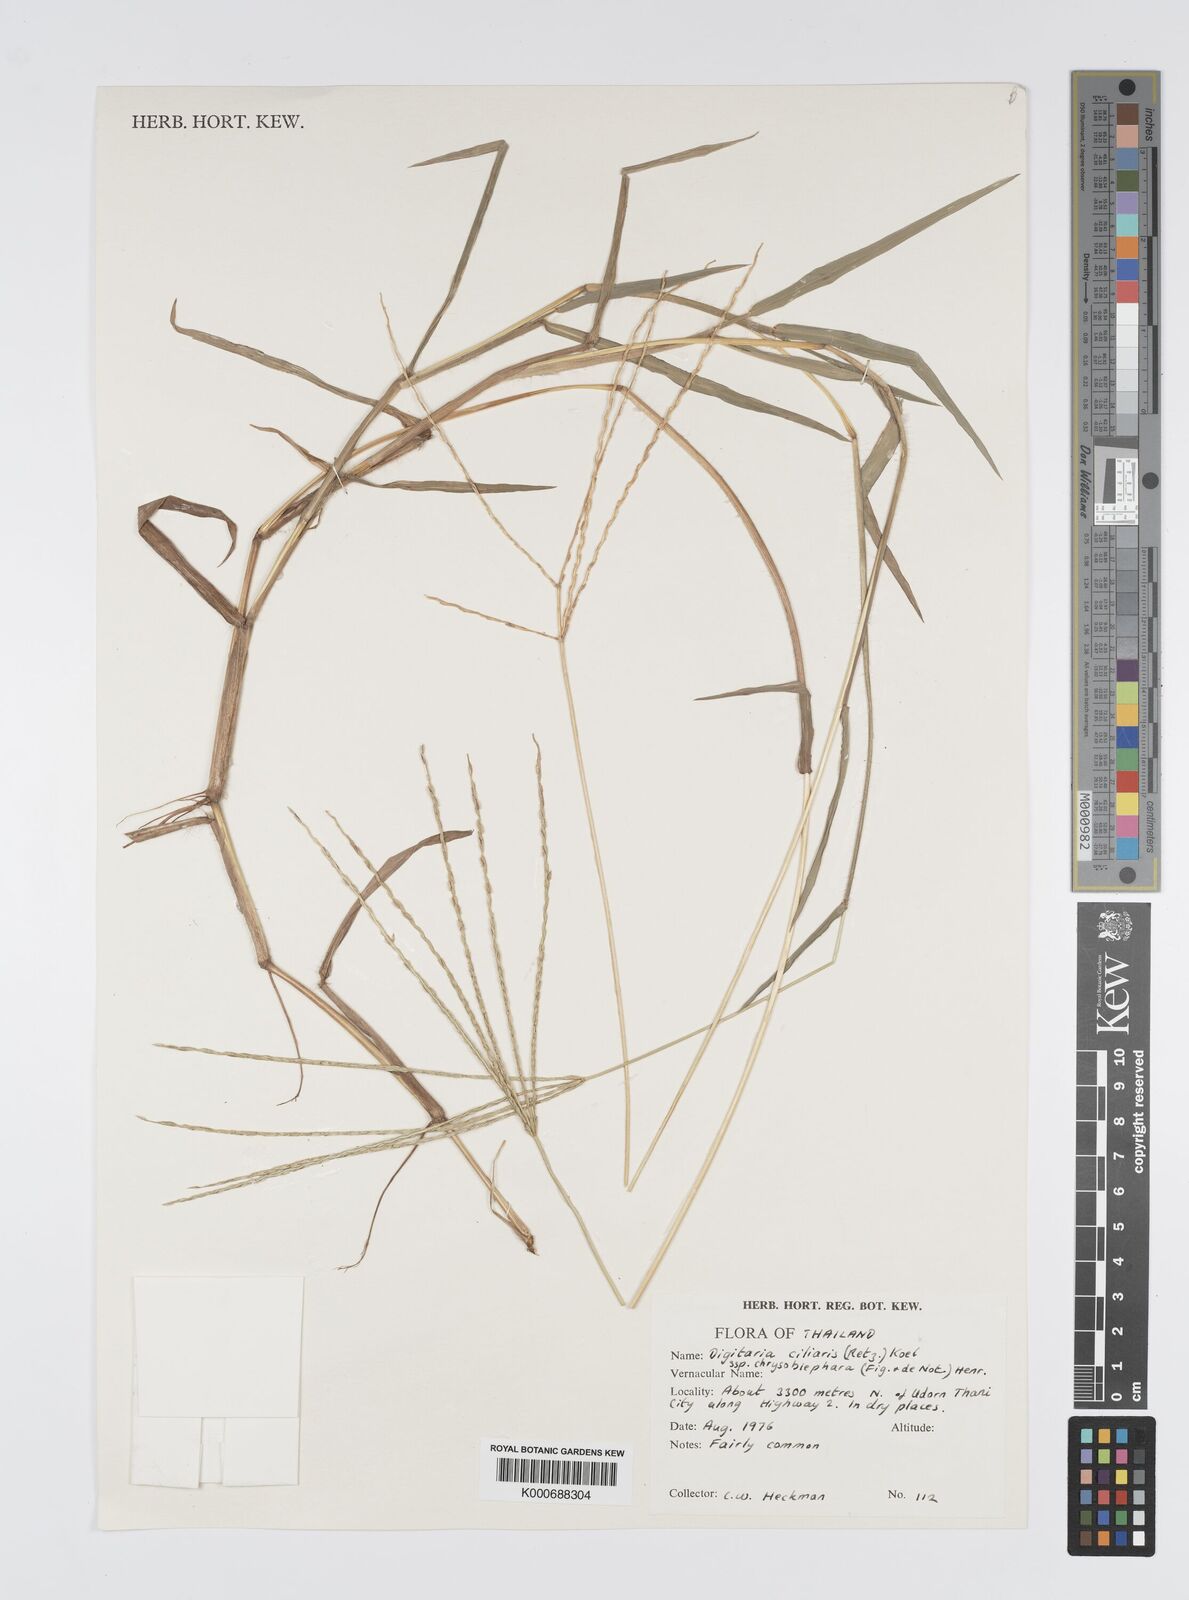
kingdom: Plantae
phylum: Tracheophyta
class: Liliopsida
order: Poales
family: Poaceae
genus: Digitaria
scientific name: Digitaria bicornis
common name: Asian crabgrass
